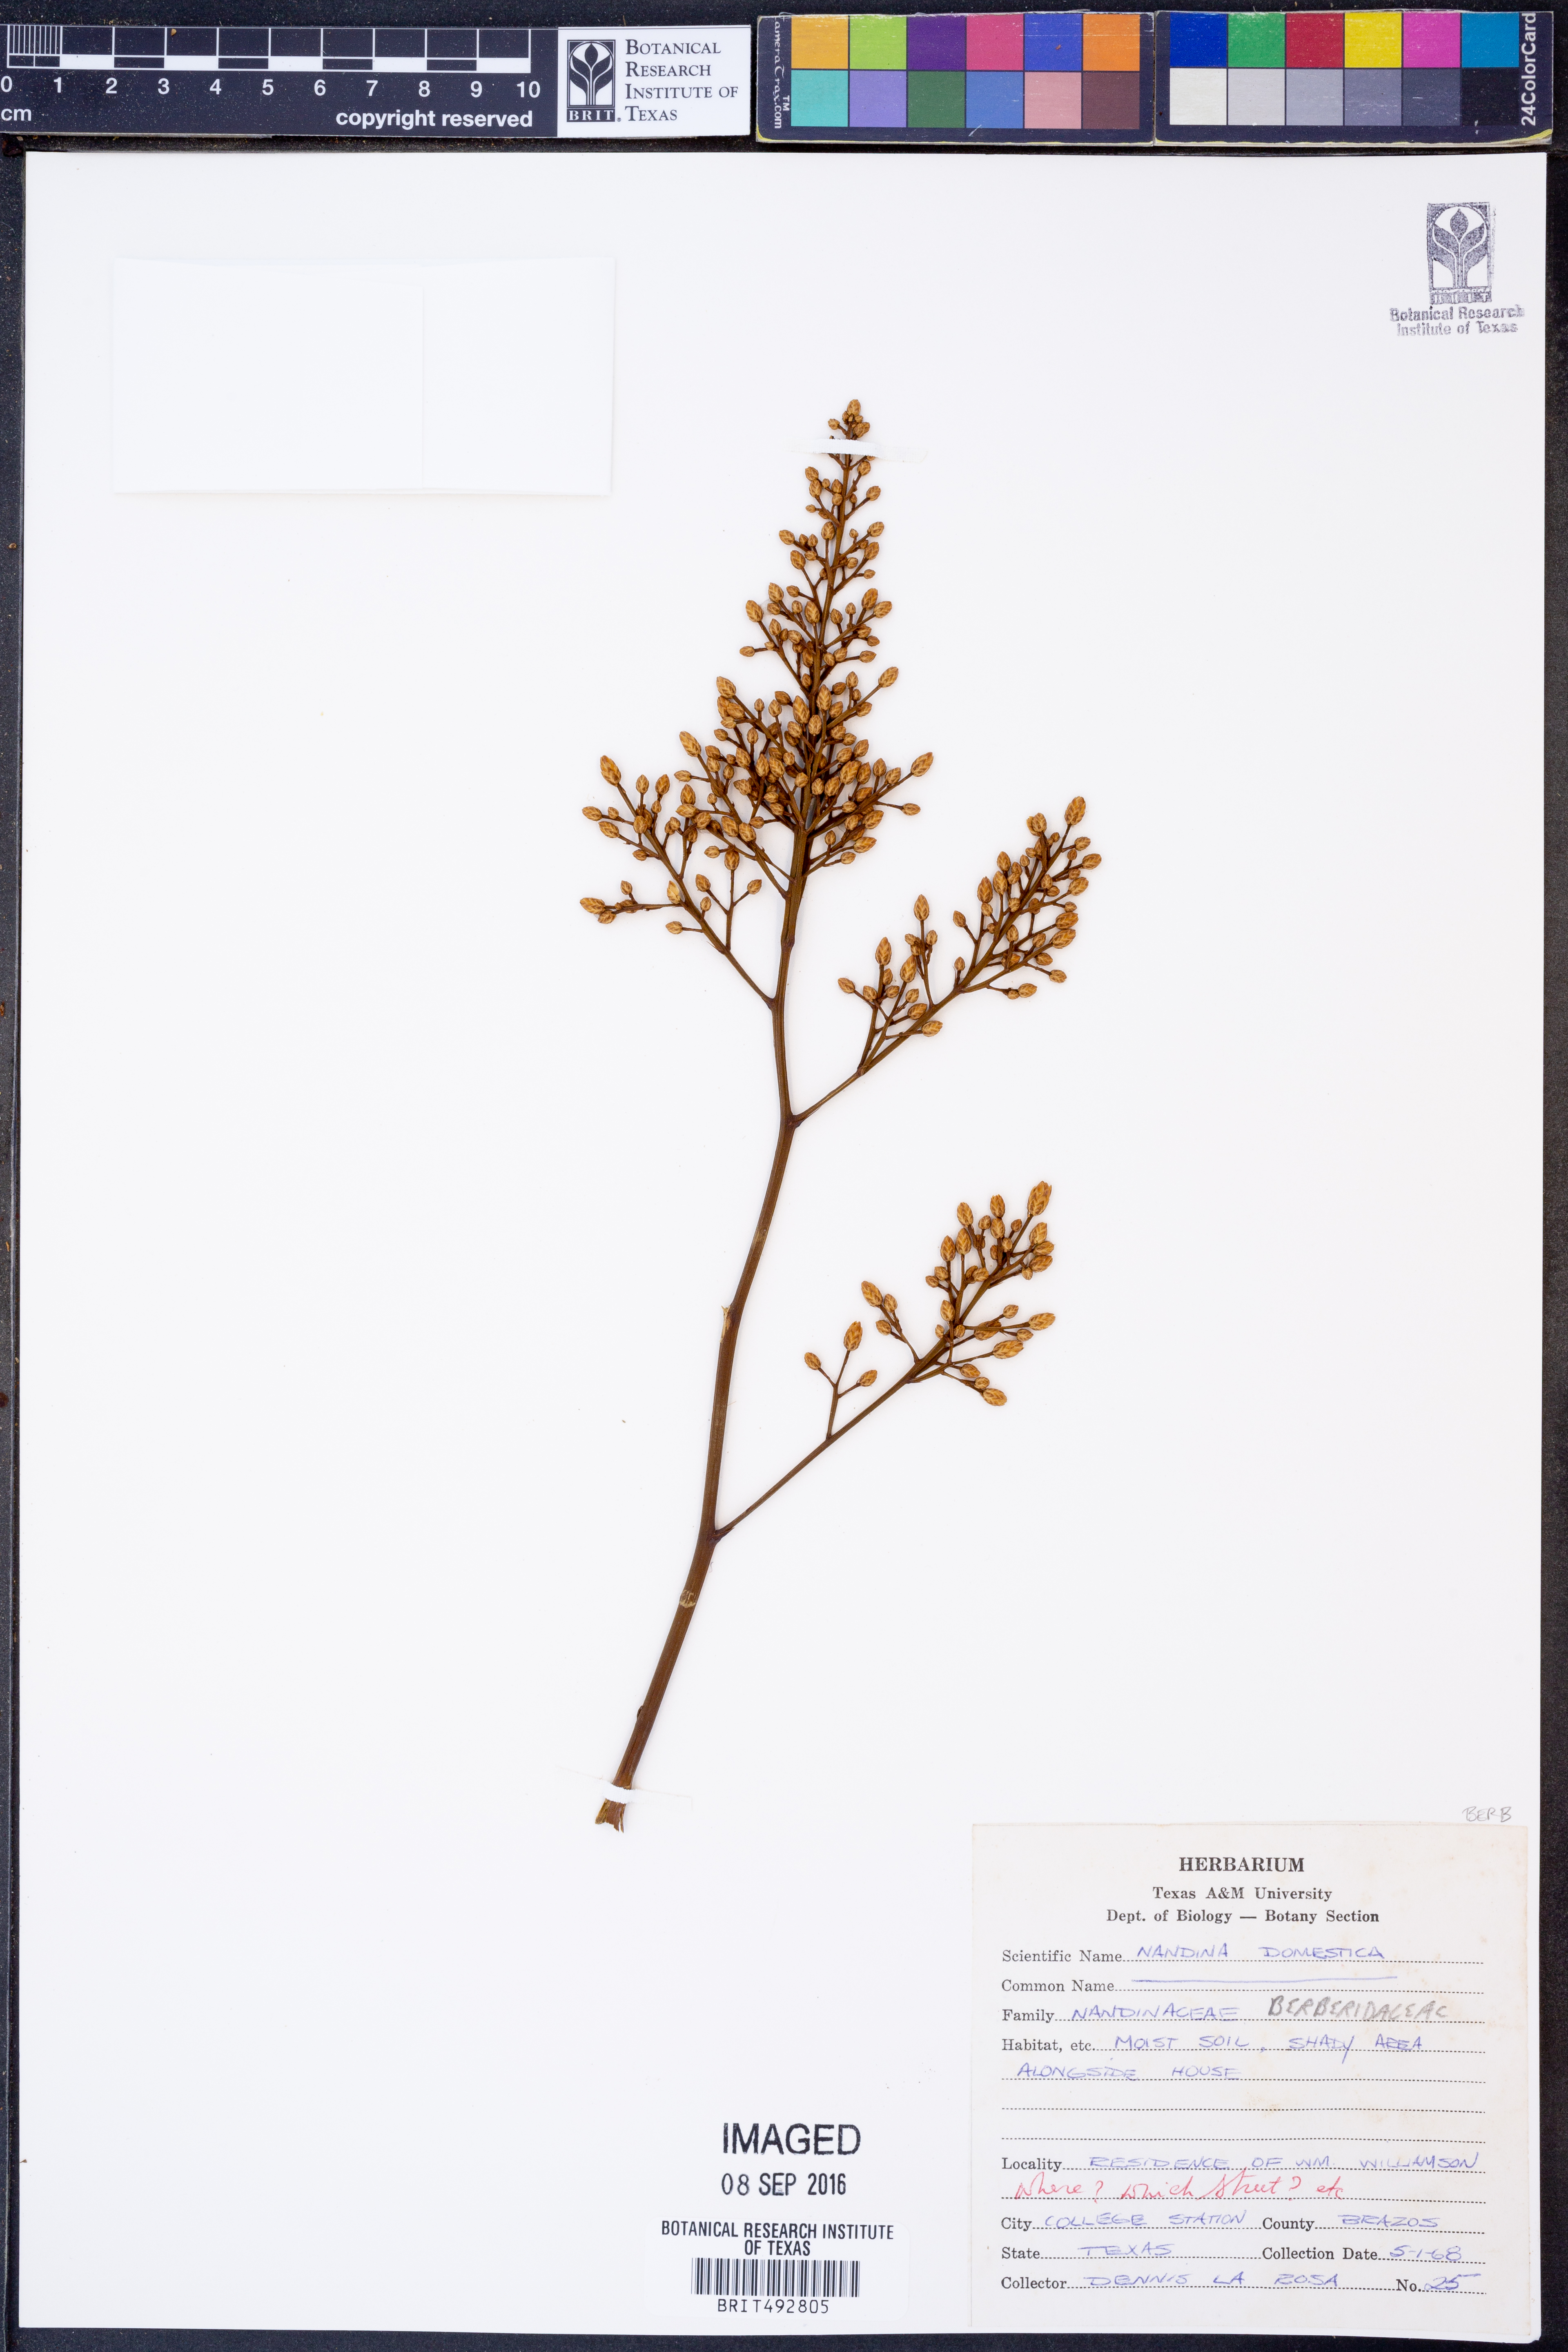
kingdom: Plantae
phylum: Tracheophyta
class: Magnoliopsida
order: Ranunculales
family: Berberidaceae
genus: Nandina
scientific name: Nandina domestica
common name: Sacred bamboo
